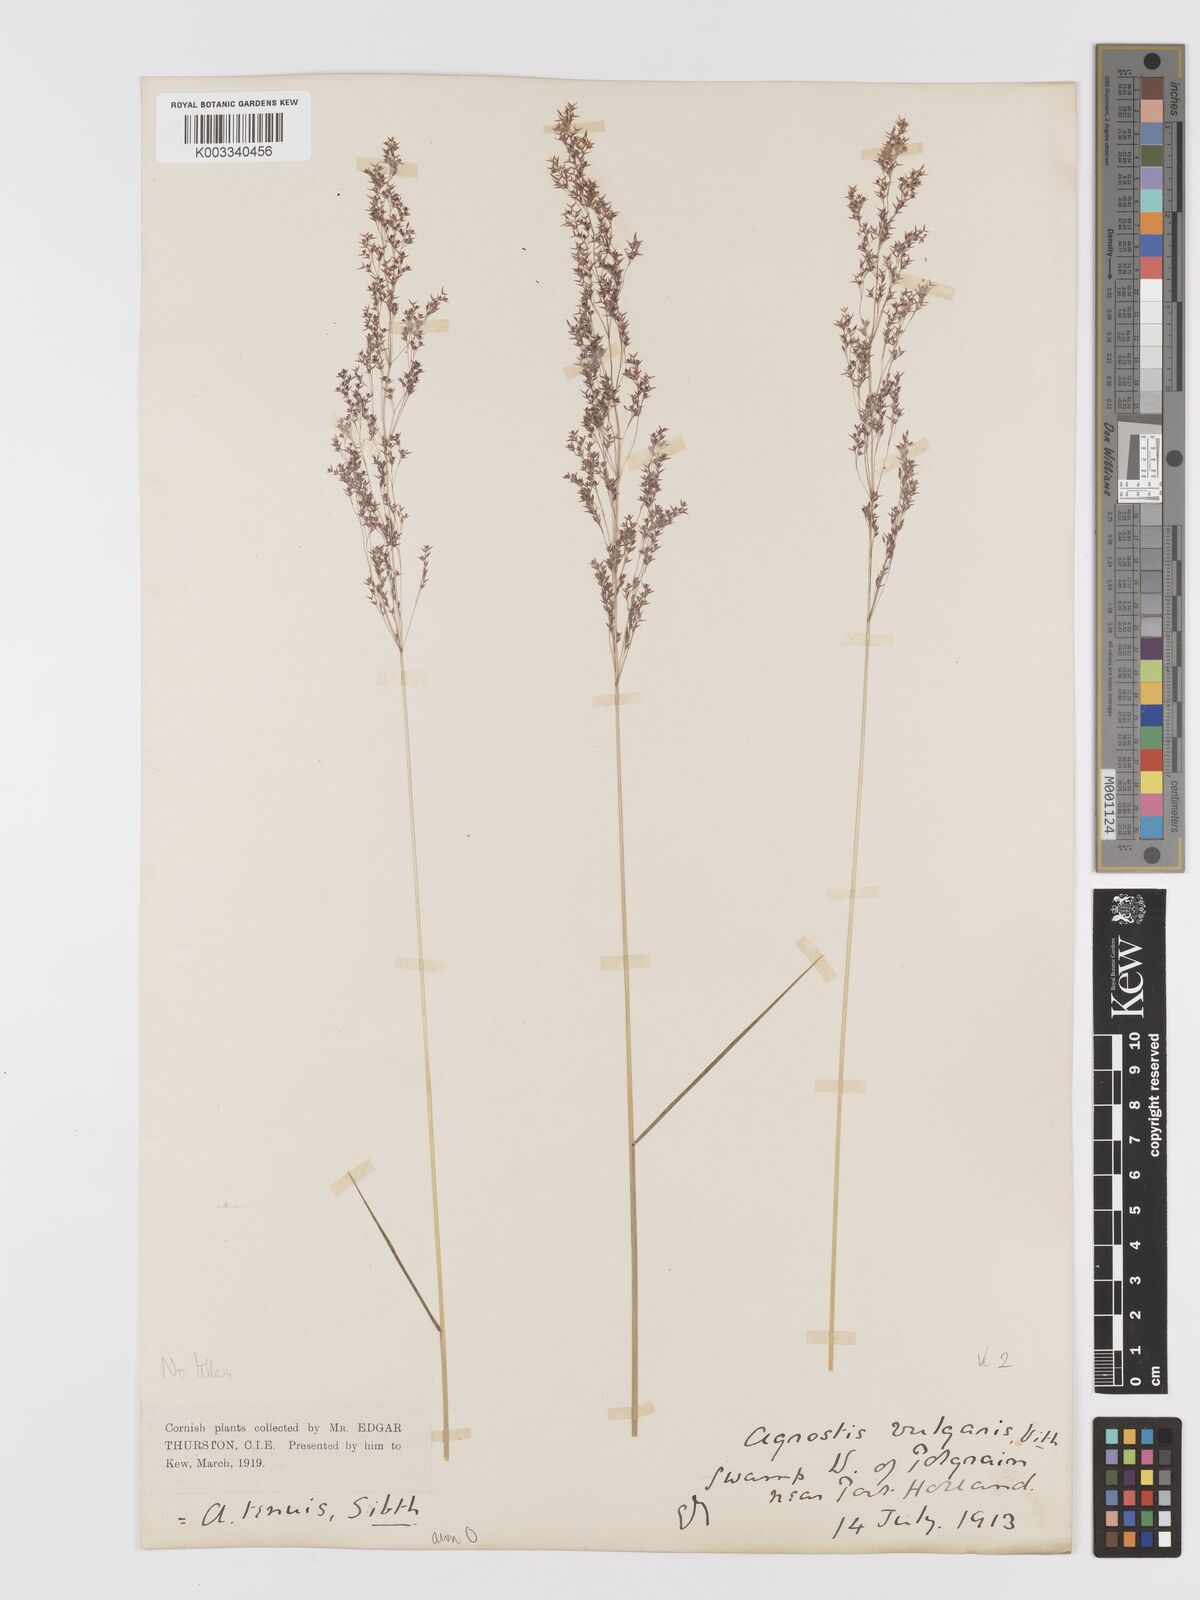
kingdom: Plantae
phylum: Tracheophyta
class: Liliopsida
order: Poales
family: Poaceae
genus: Agrostis
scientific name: Agrostis capillaris
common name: Colonial bentgrass
